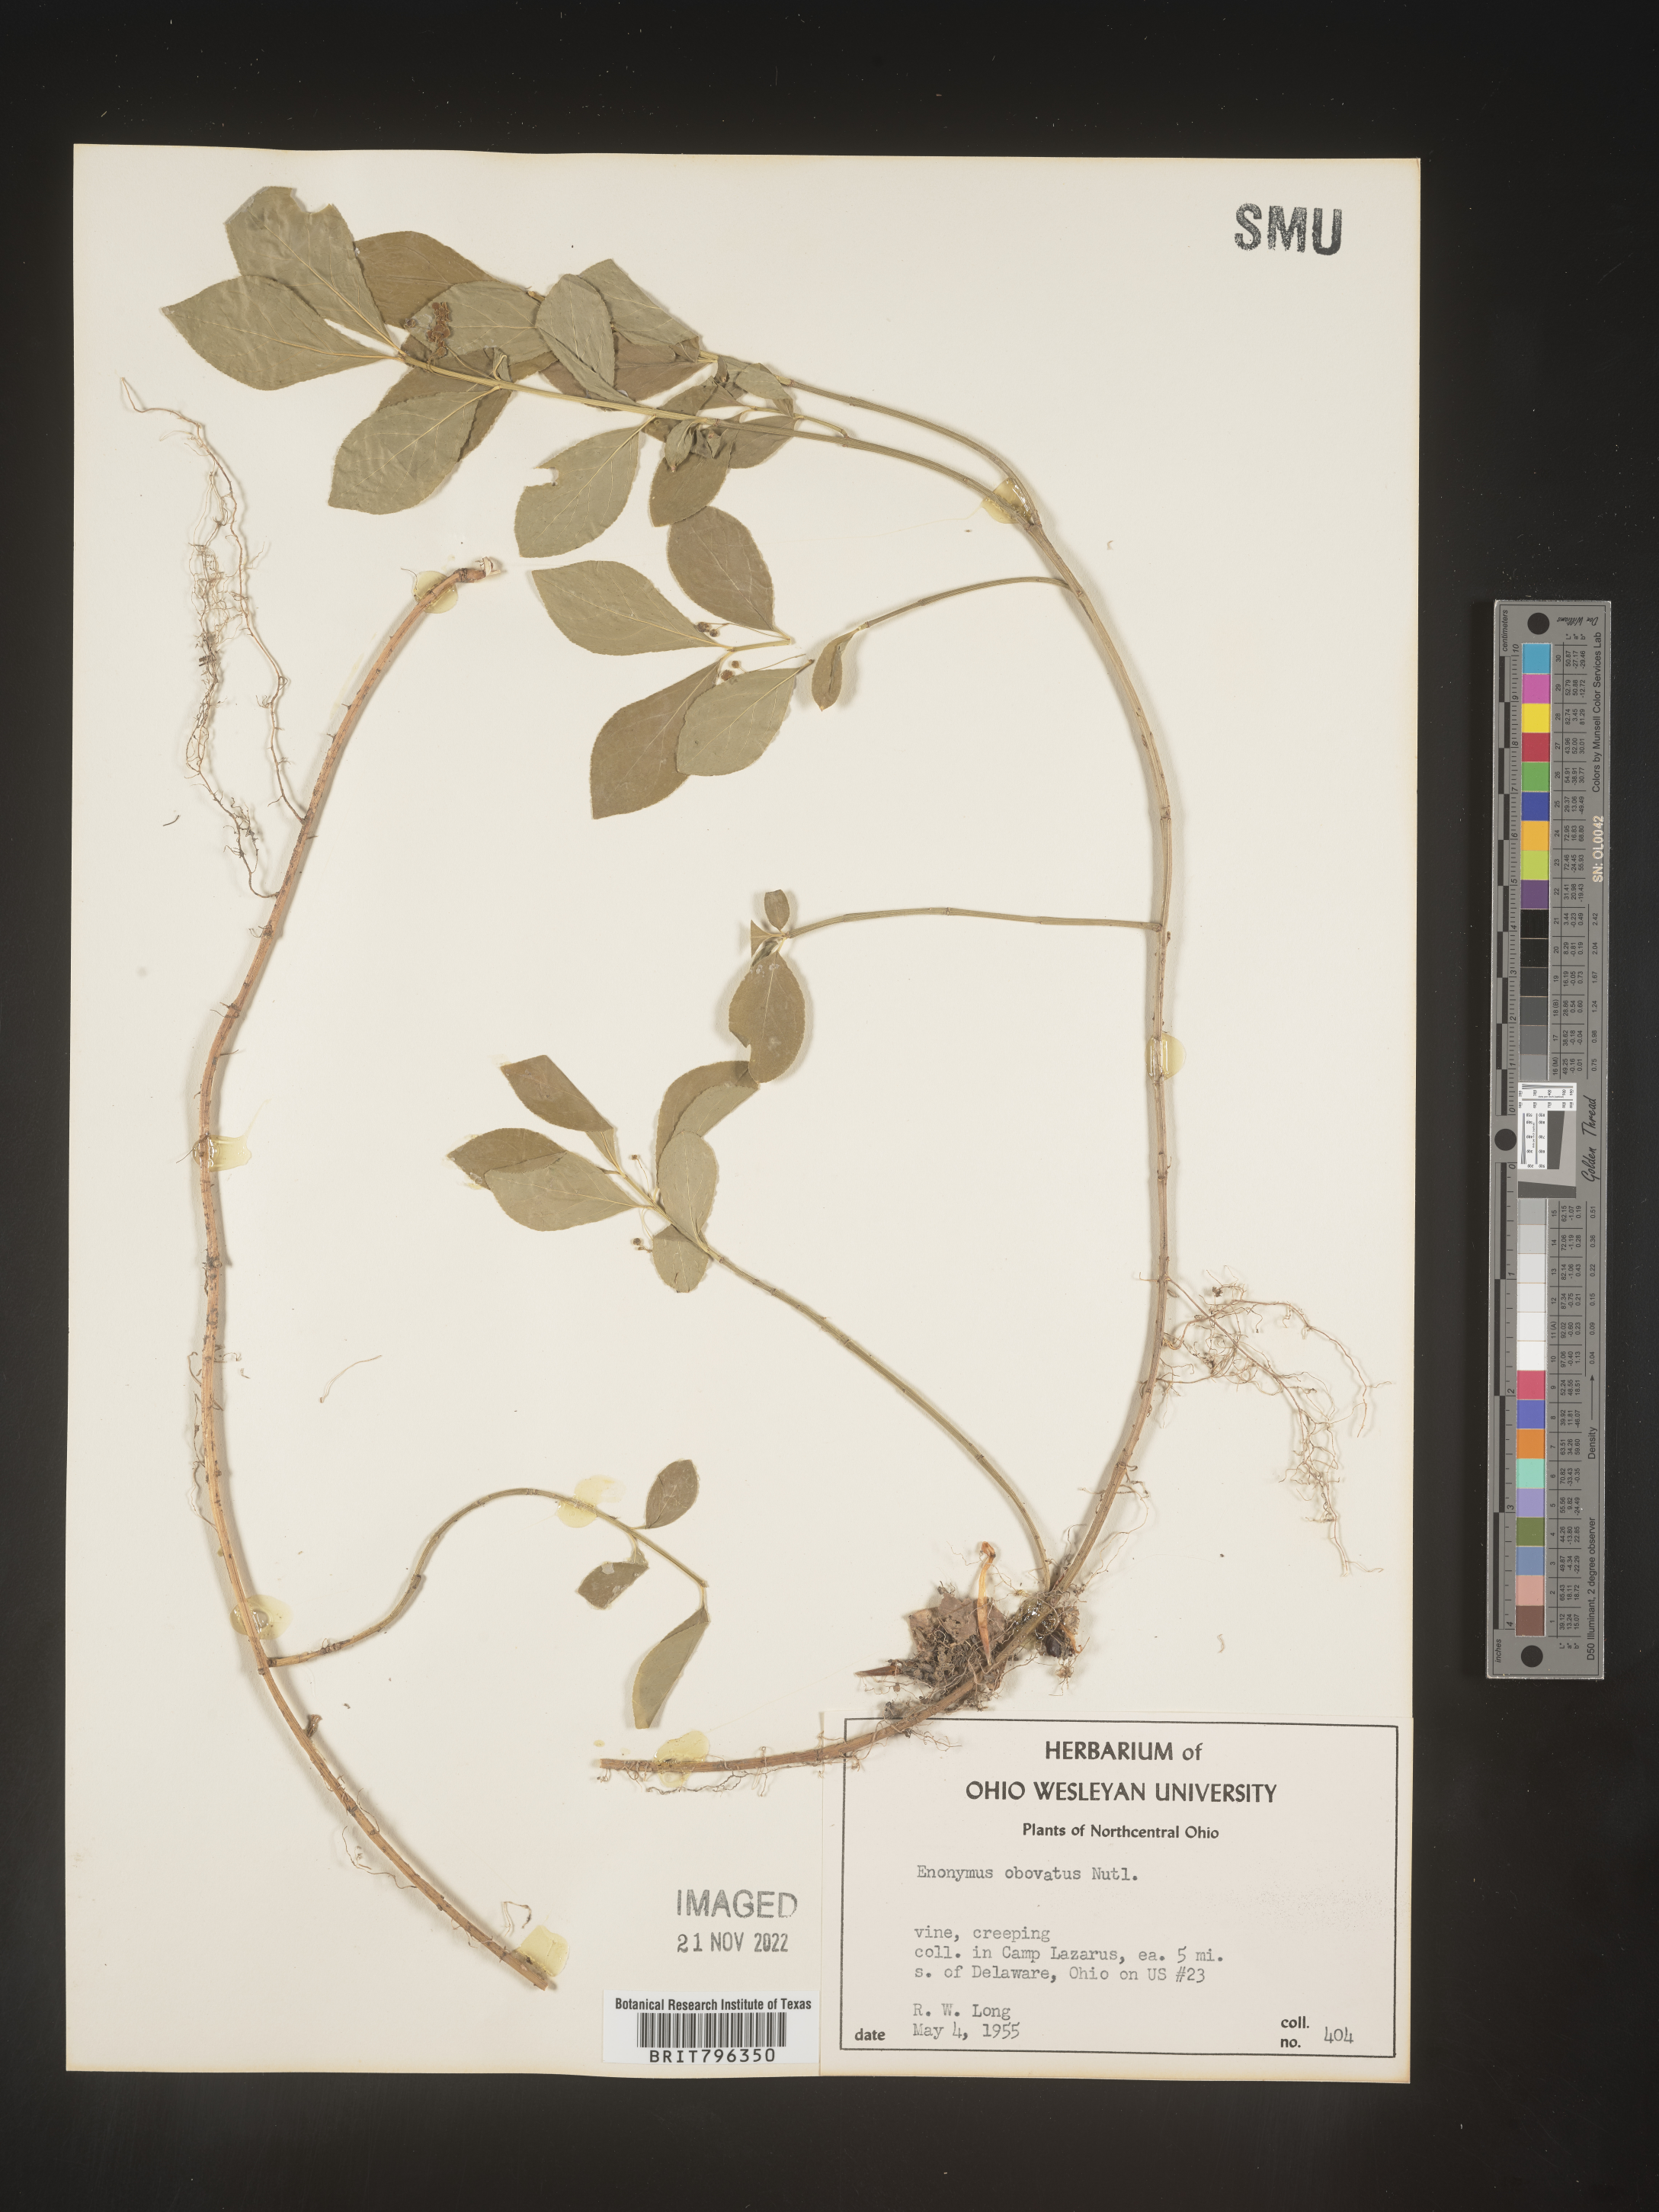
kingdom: Plantae
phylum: Tracheophyta
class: Magnoliopsida
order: Celastrales
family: Celastraceae
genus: Euonymus
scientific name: Euonymus obovatus
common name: Running strawberry-bush
